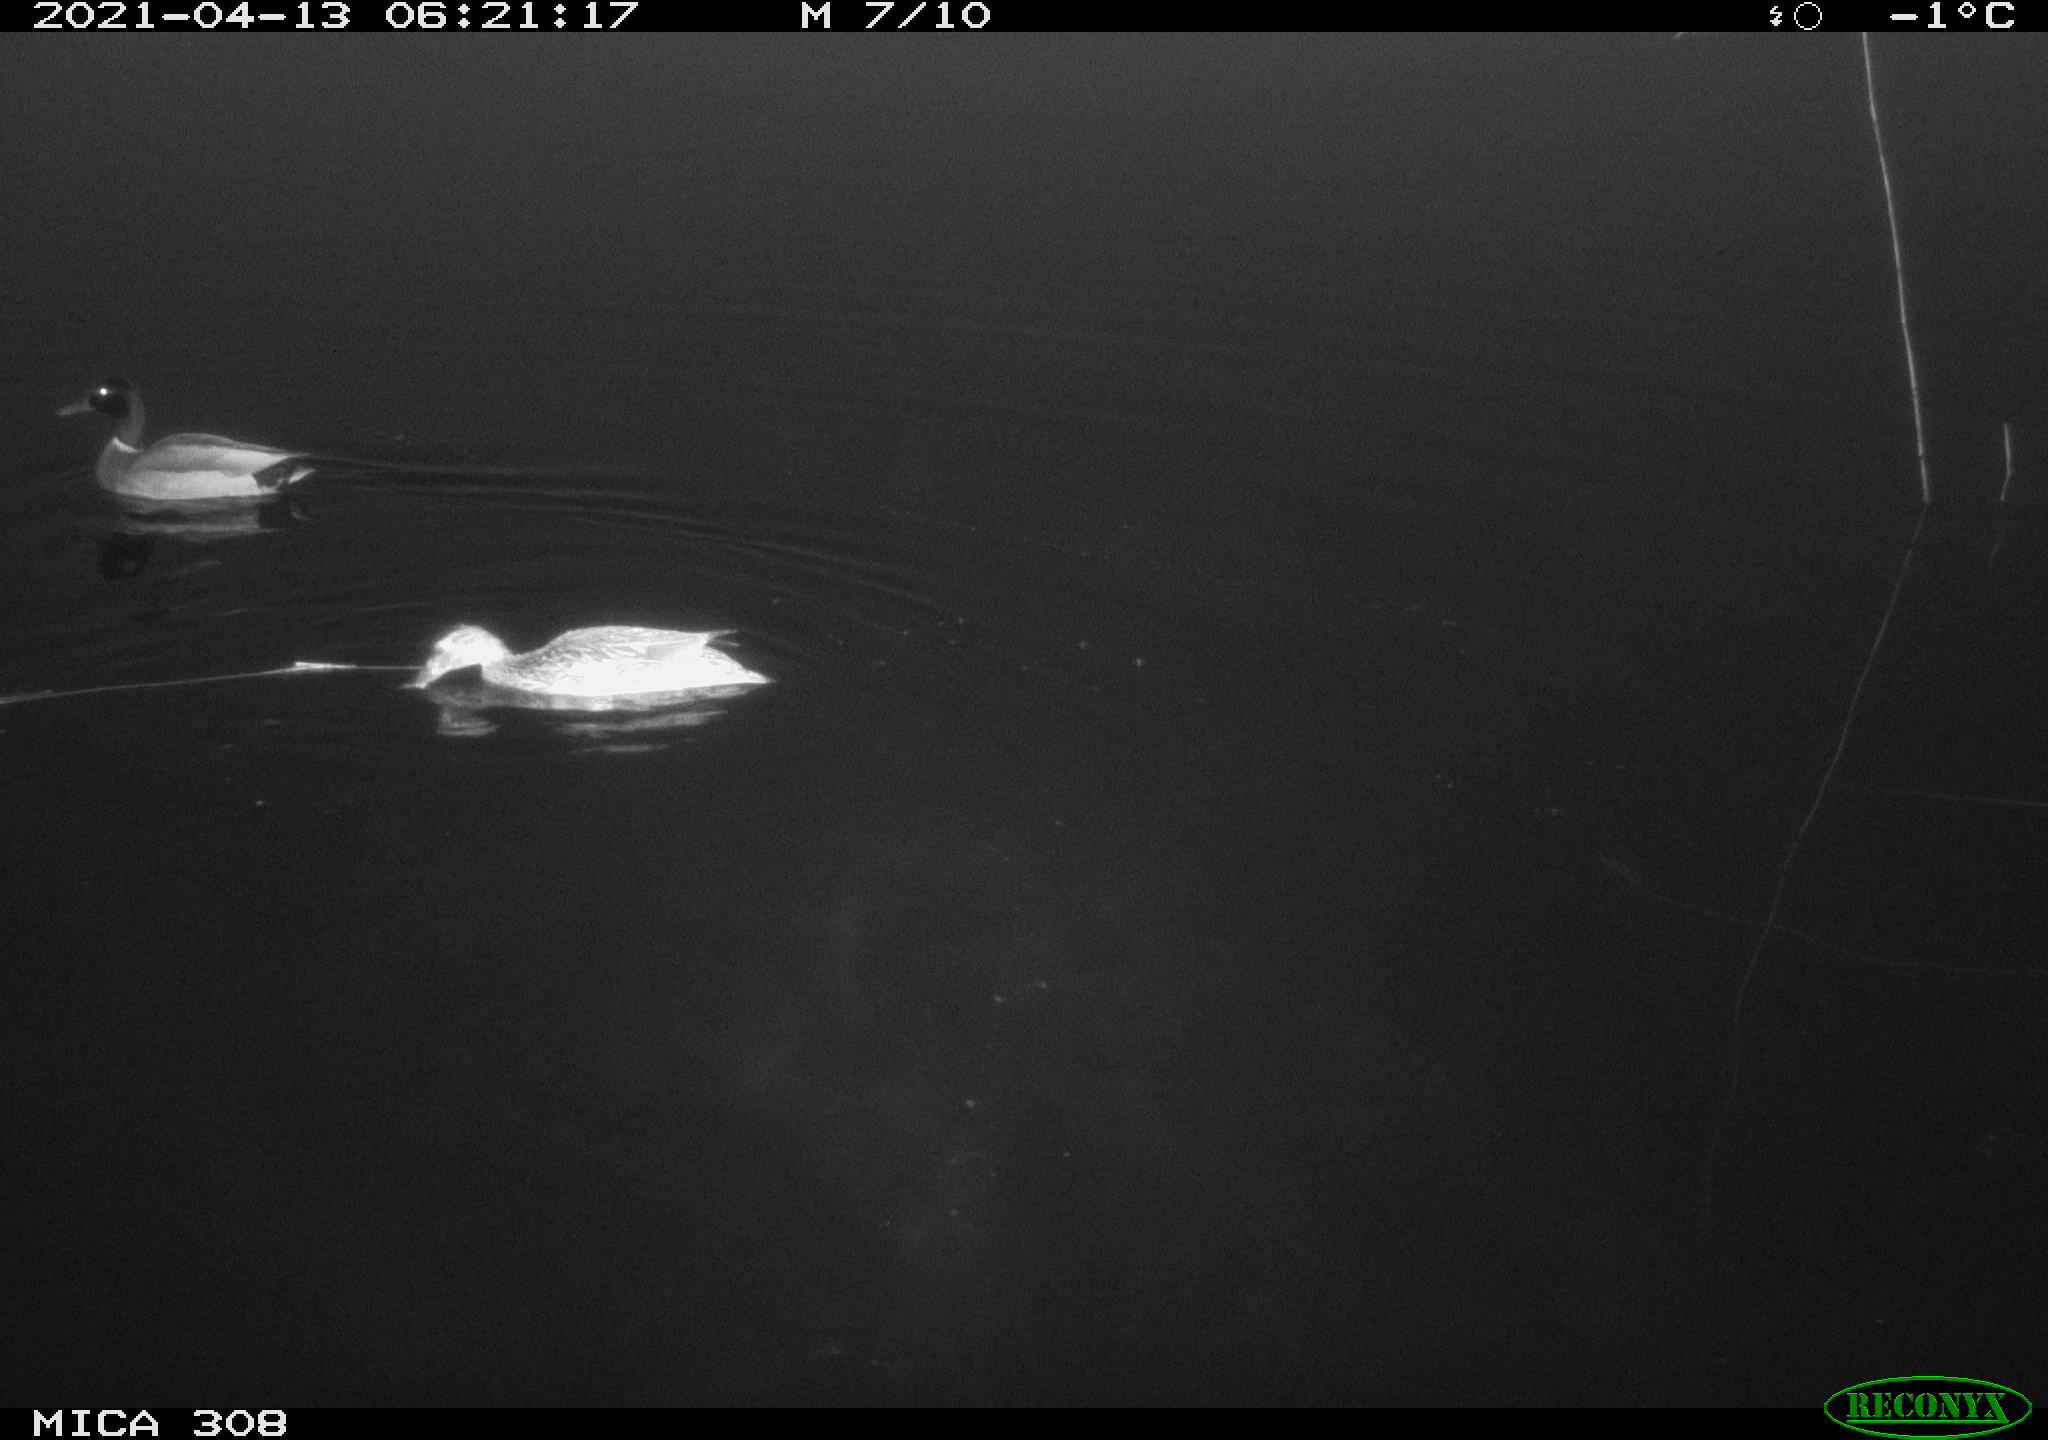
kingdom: Animalia
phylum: Chordata
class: Aves
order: Anseriformes
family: Anatidae
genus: Anas
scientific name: Anas platyrhynchos
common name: Mallard
